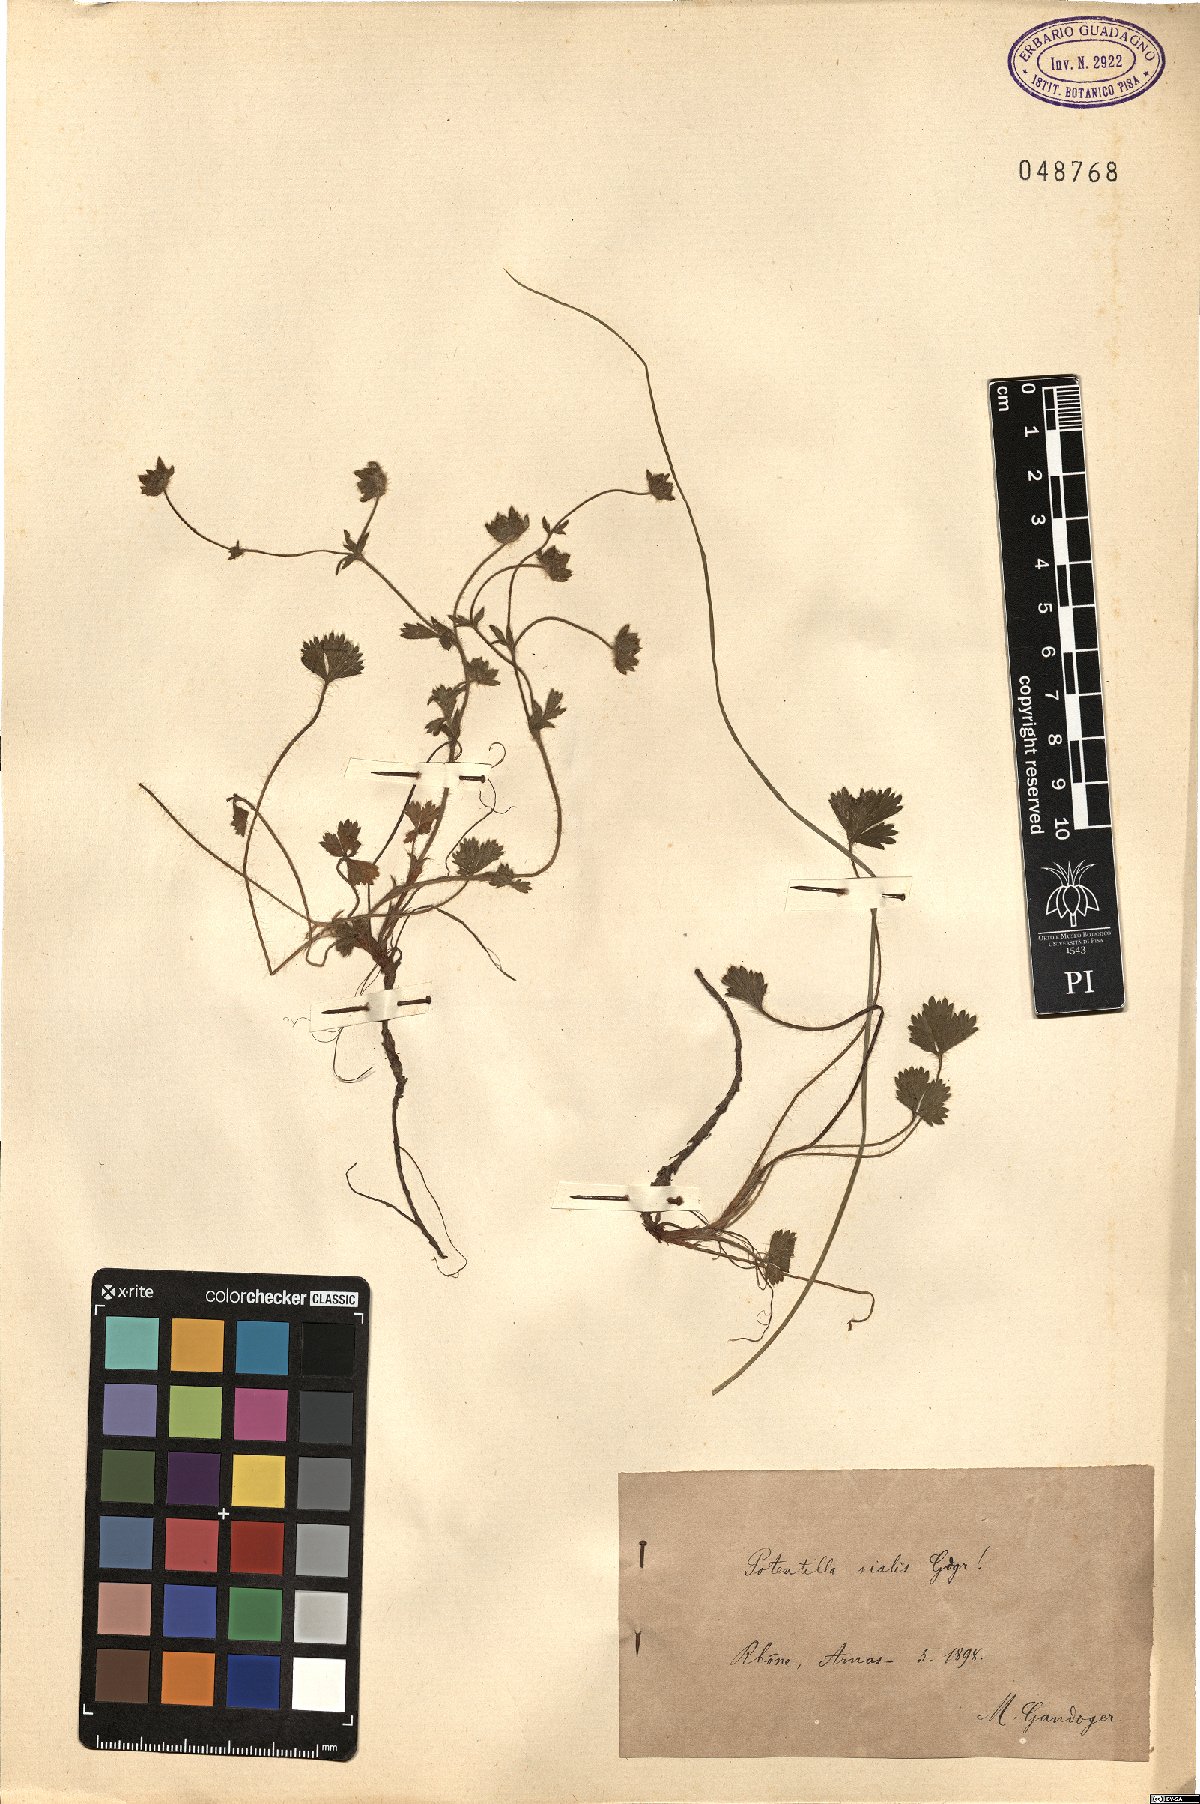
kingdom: Plantae
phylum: Tracheophyta
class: Magnoliopsida
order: Rosales
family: Rosaceae
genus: Potentilla
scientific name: Potentilla vialis
